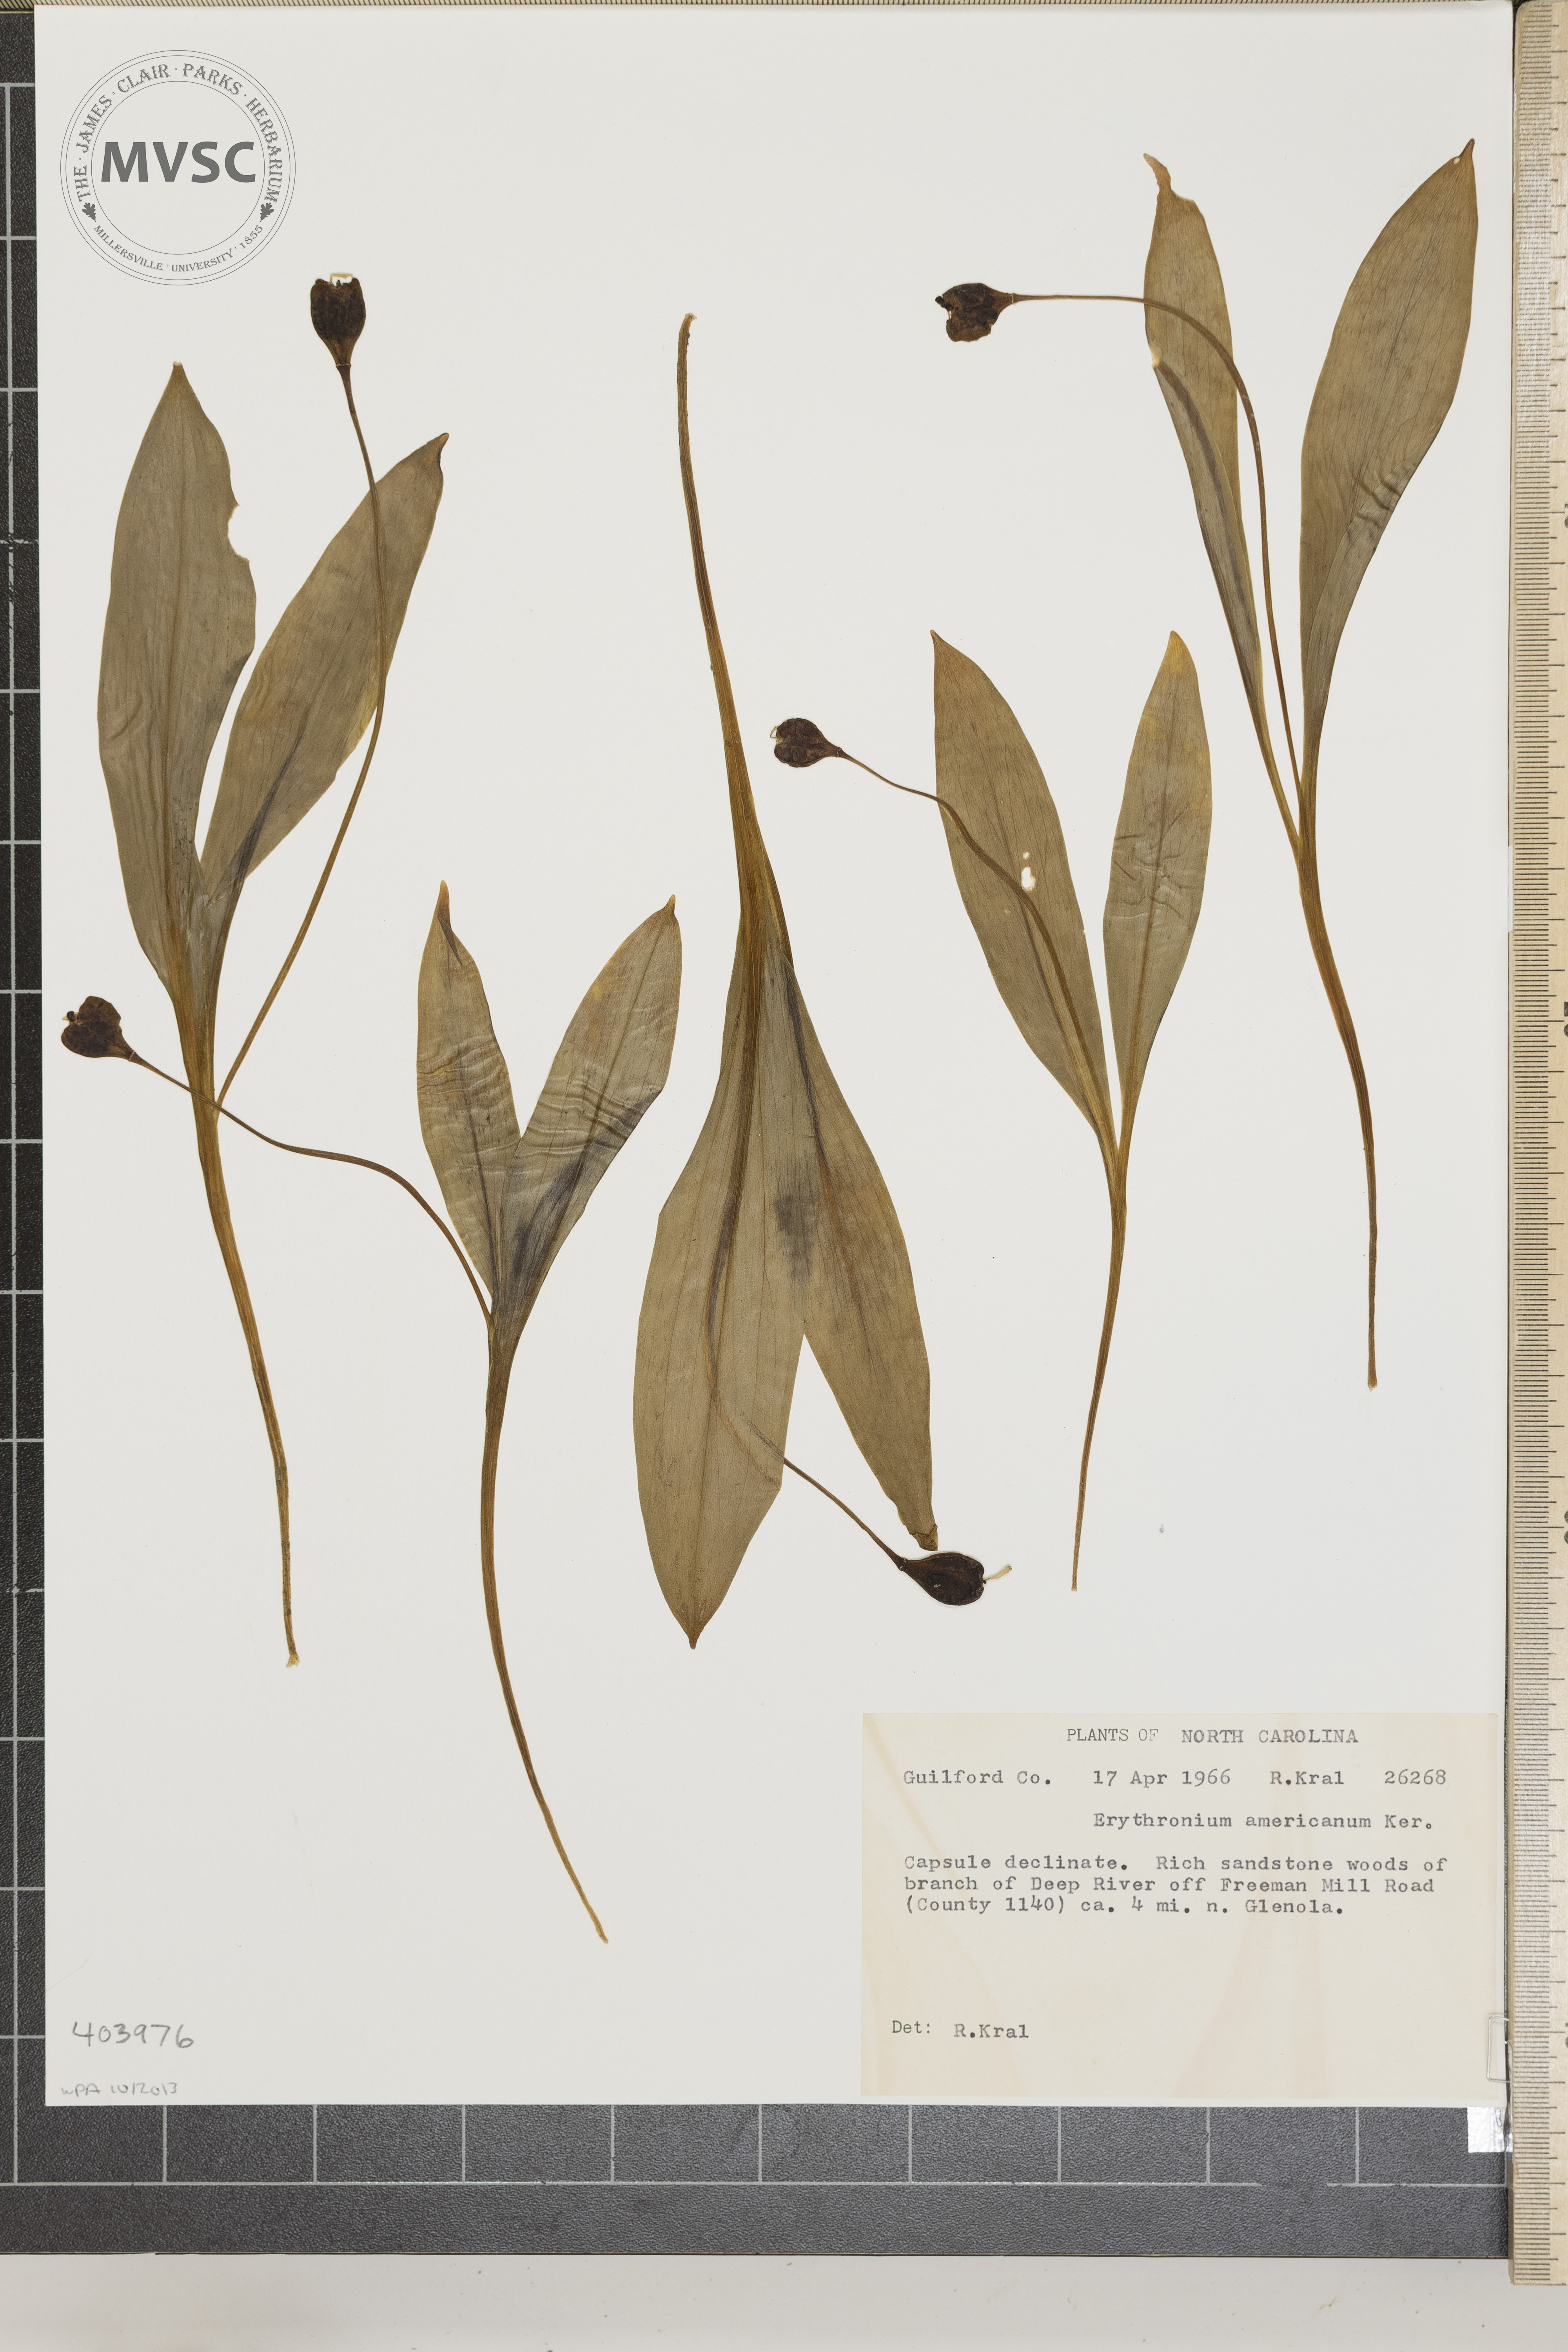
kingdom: Plantae
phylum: Tracheophyta
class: Liliopsida
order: Liliales
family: Liliaceae
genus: Erythronium
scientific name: Erythronium americanum
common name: Yellow adder's-tongue
